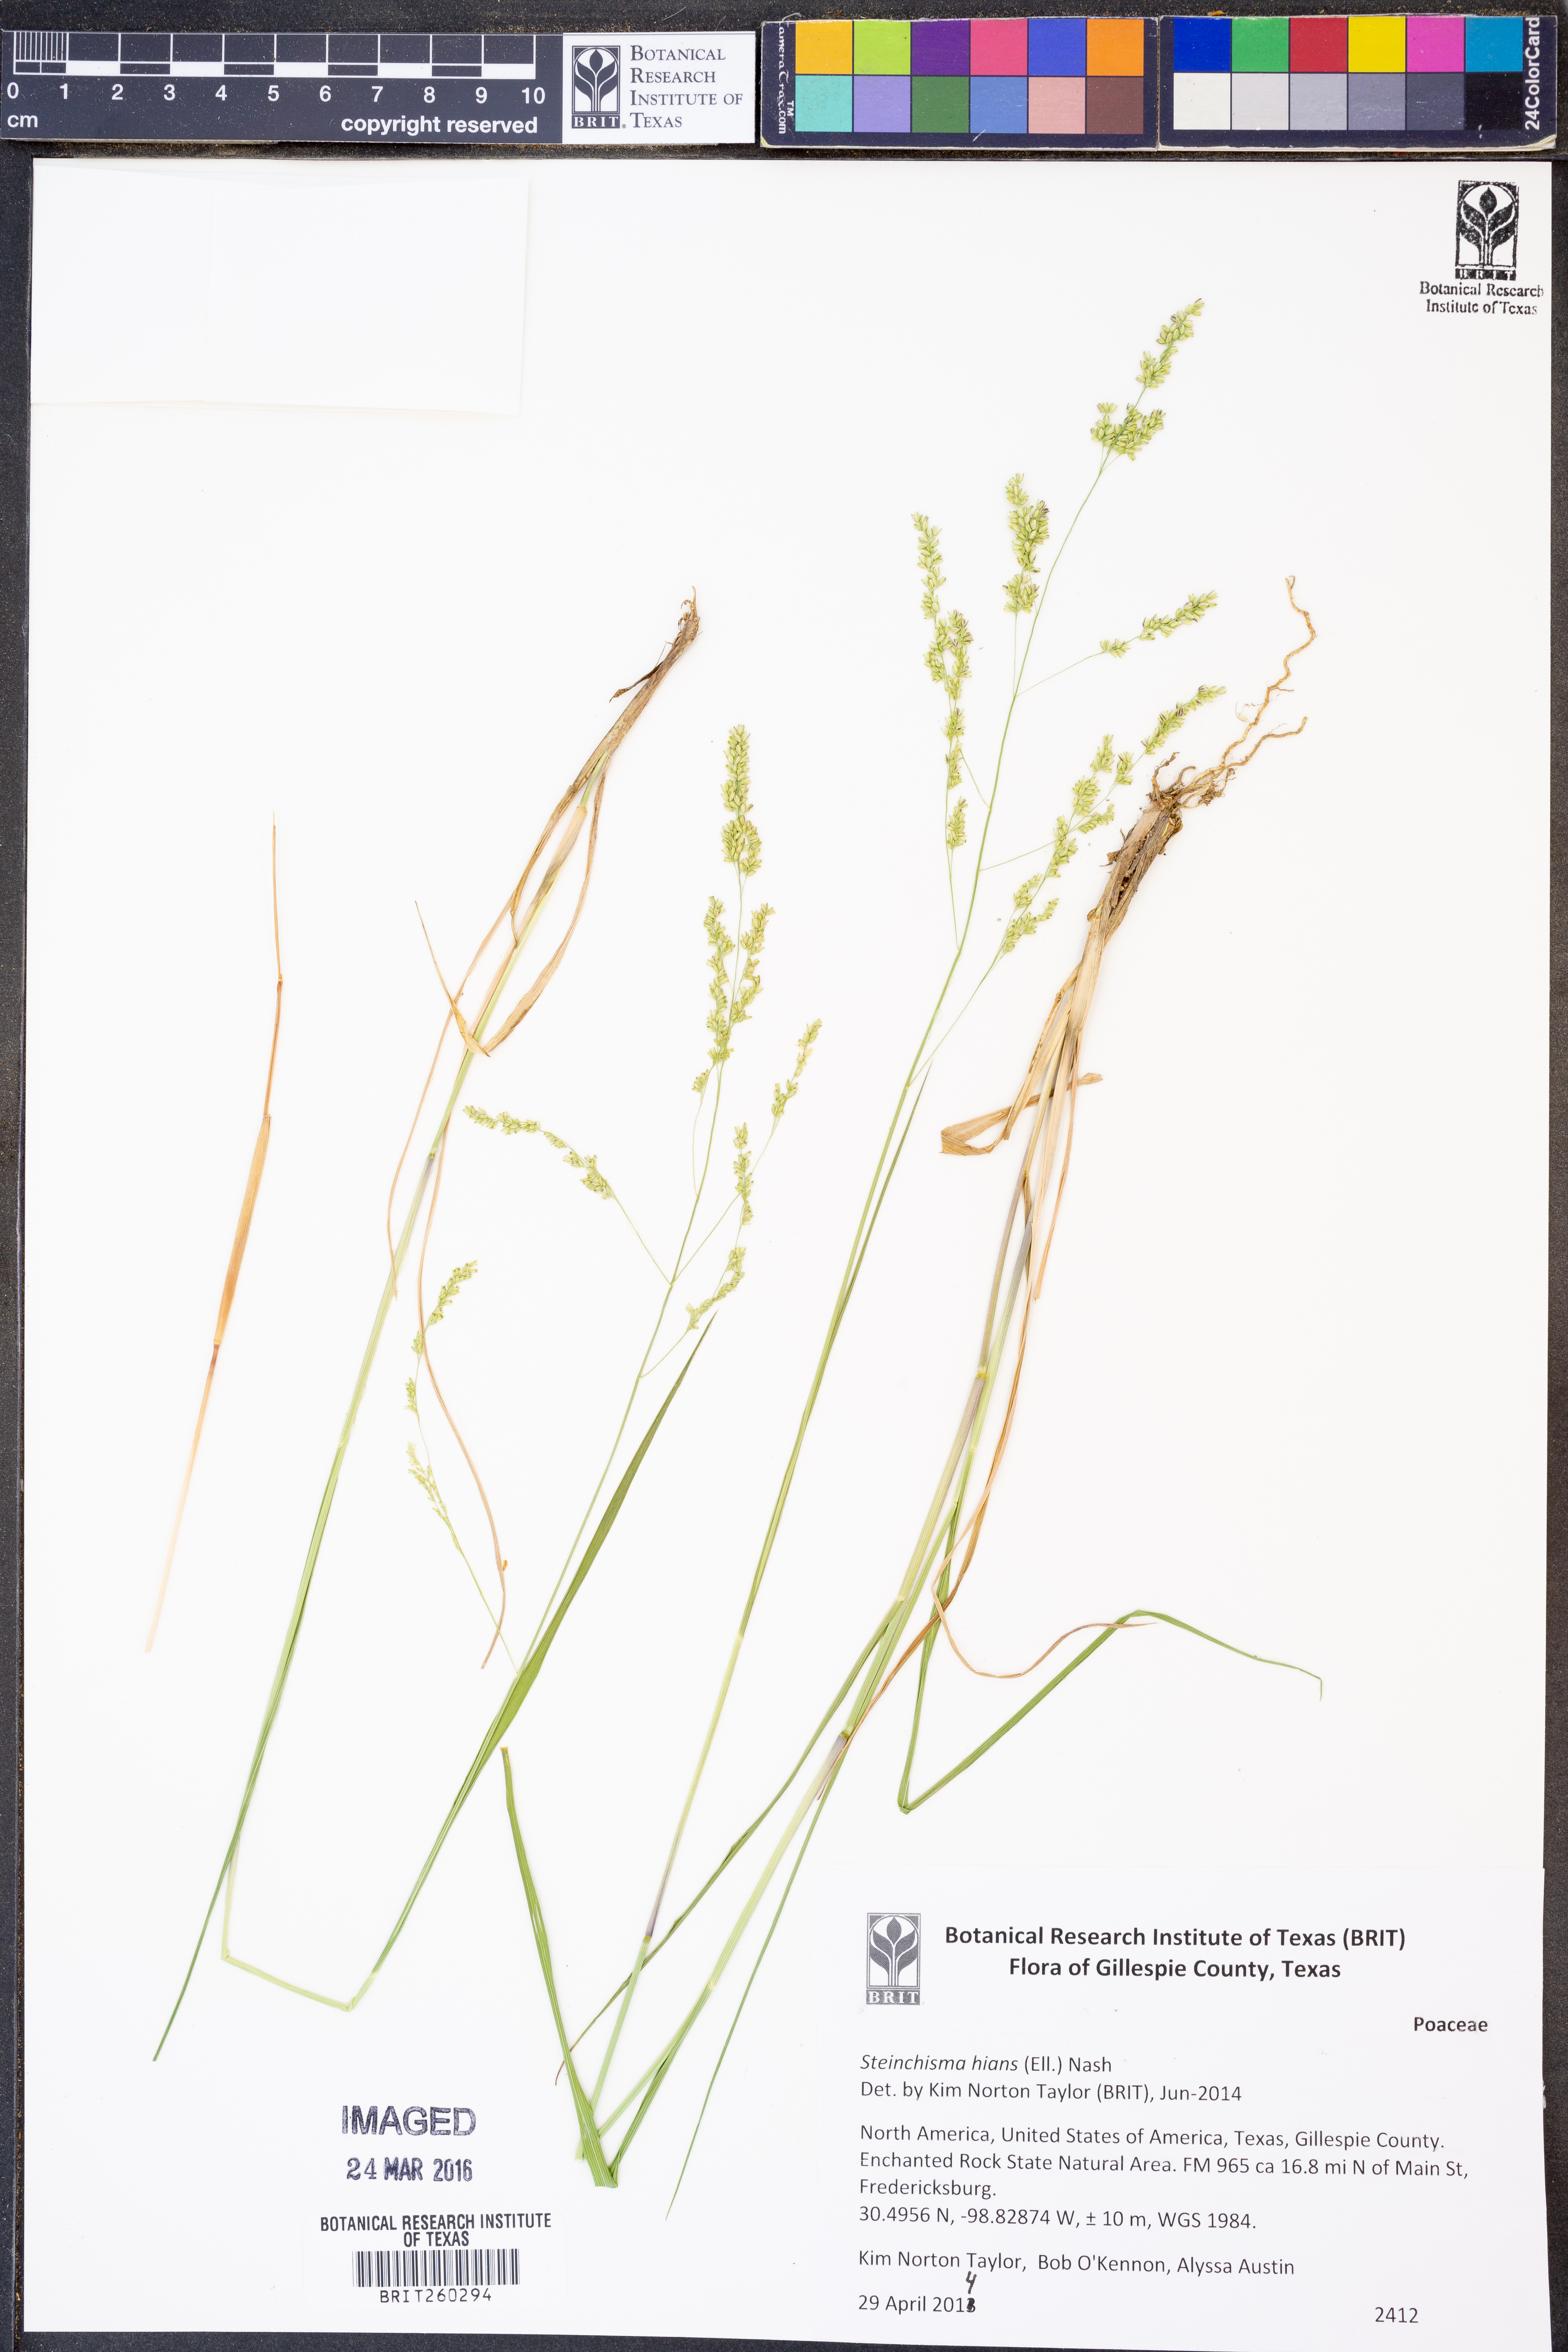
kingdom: Plantae
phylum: Tracheophyta
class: Liliopsida
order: Poales
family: Poaceae
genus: Steinchisma
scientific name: Steinchisma hians
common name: Gaping panic grass
